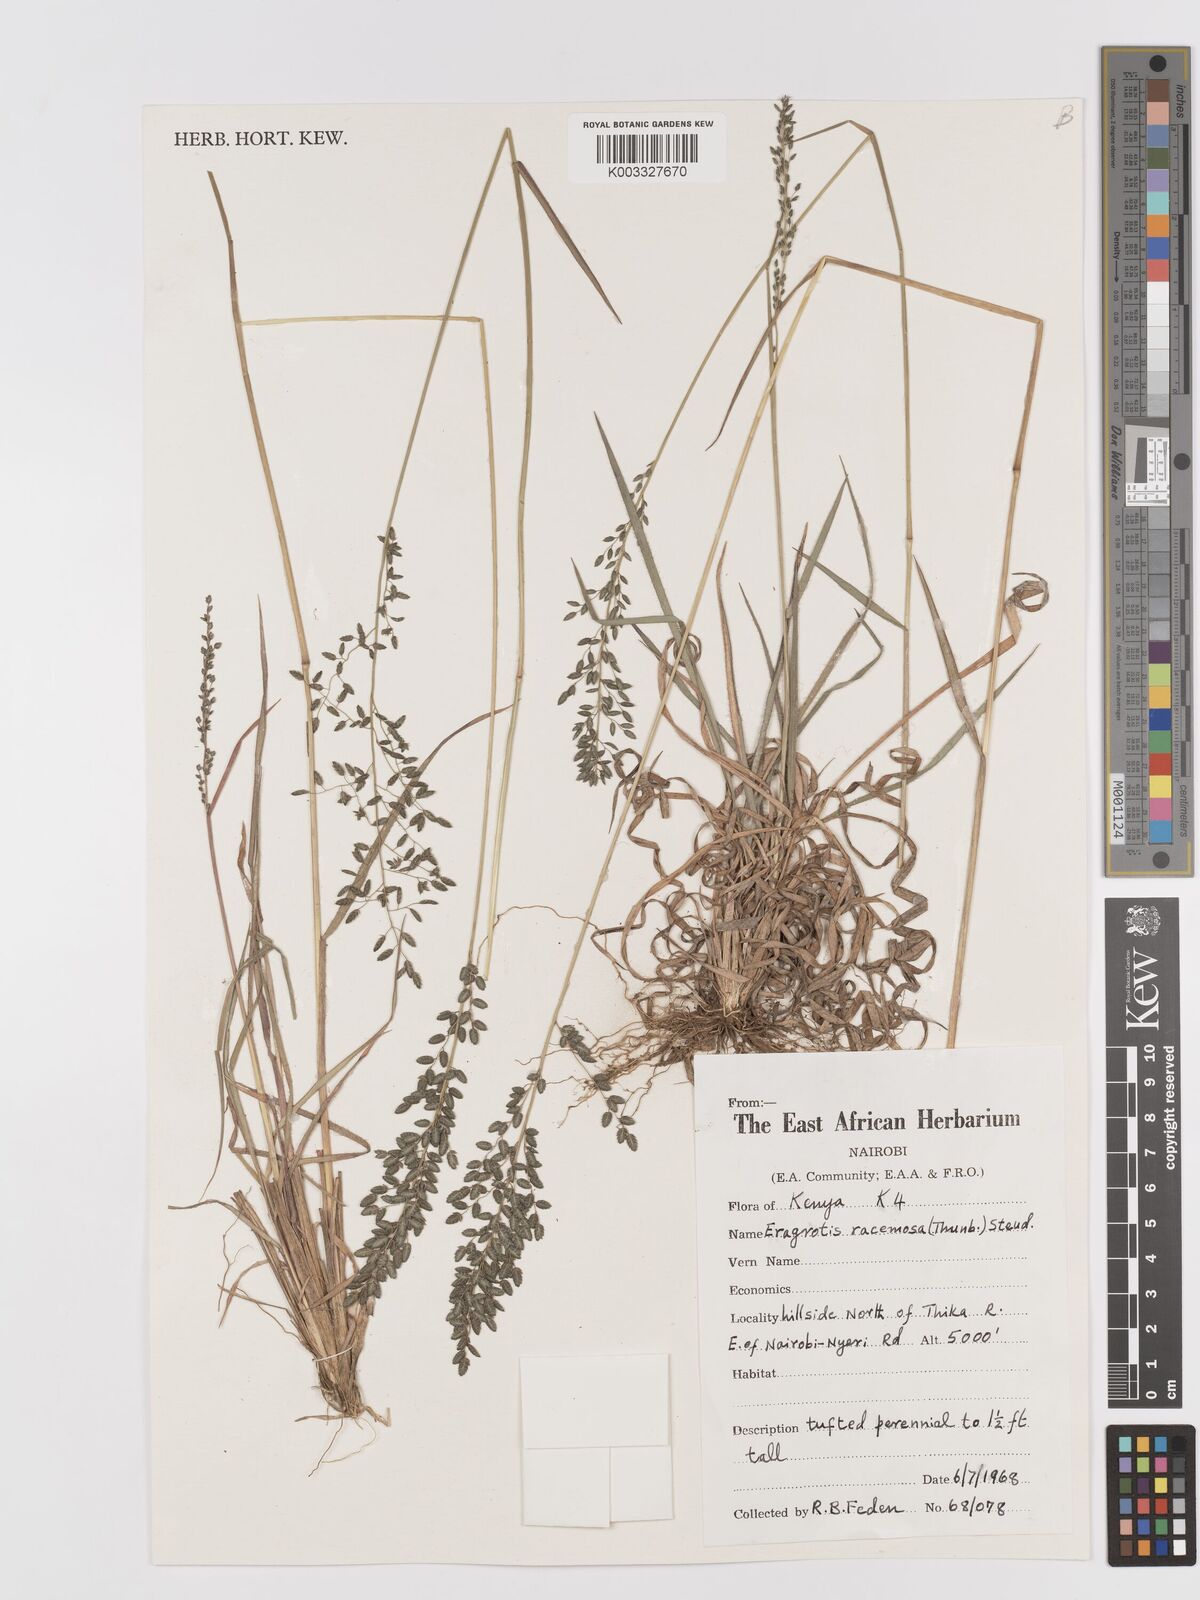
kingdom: Plantae
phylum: Tracheophyta
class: Liliopsida
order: Poales
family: Poaceae
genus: Eragrostis
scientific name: Eragrostis racemosa
